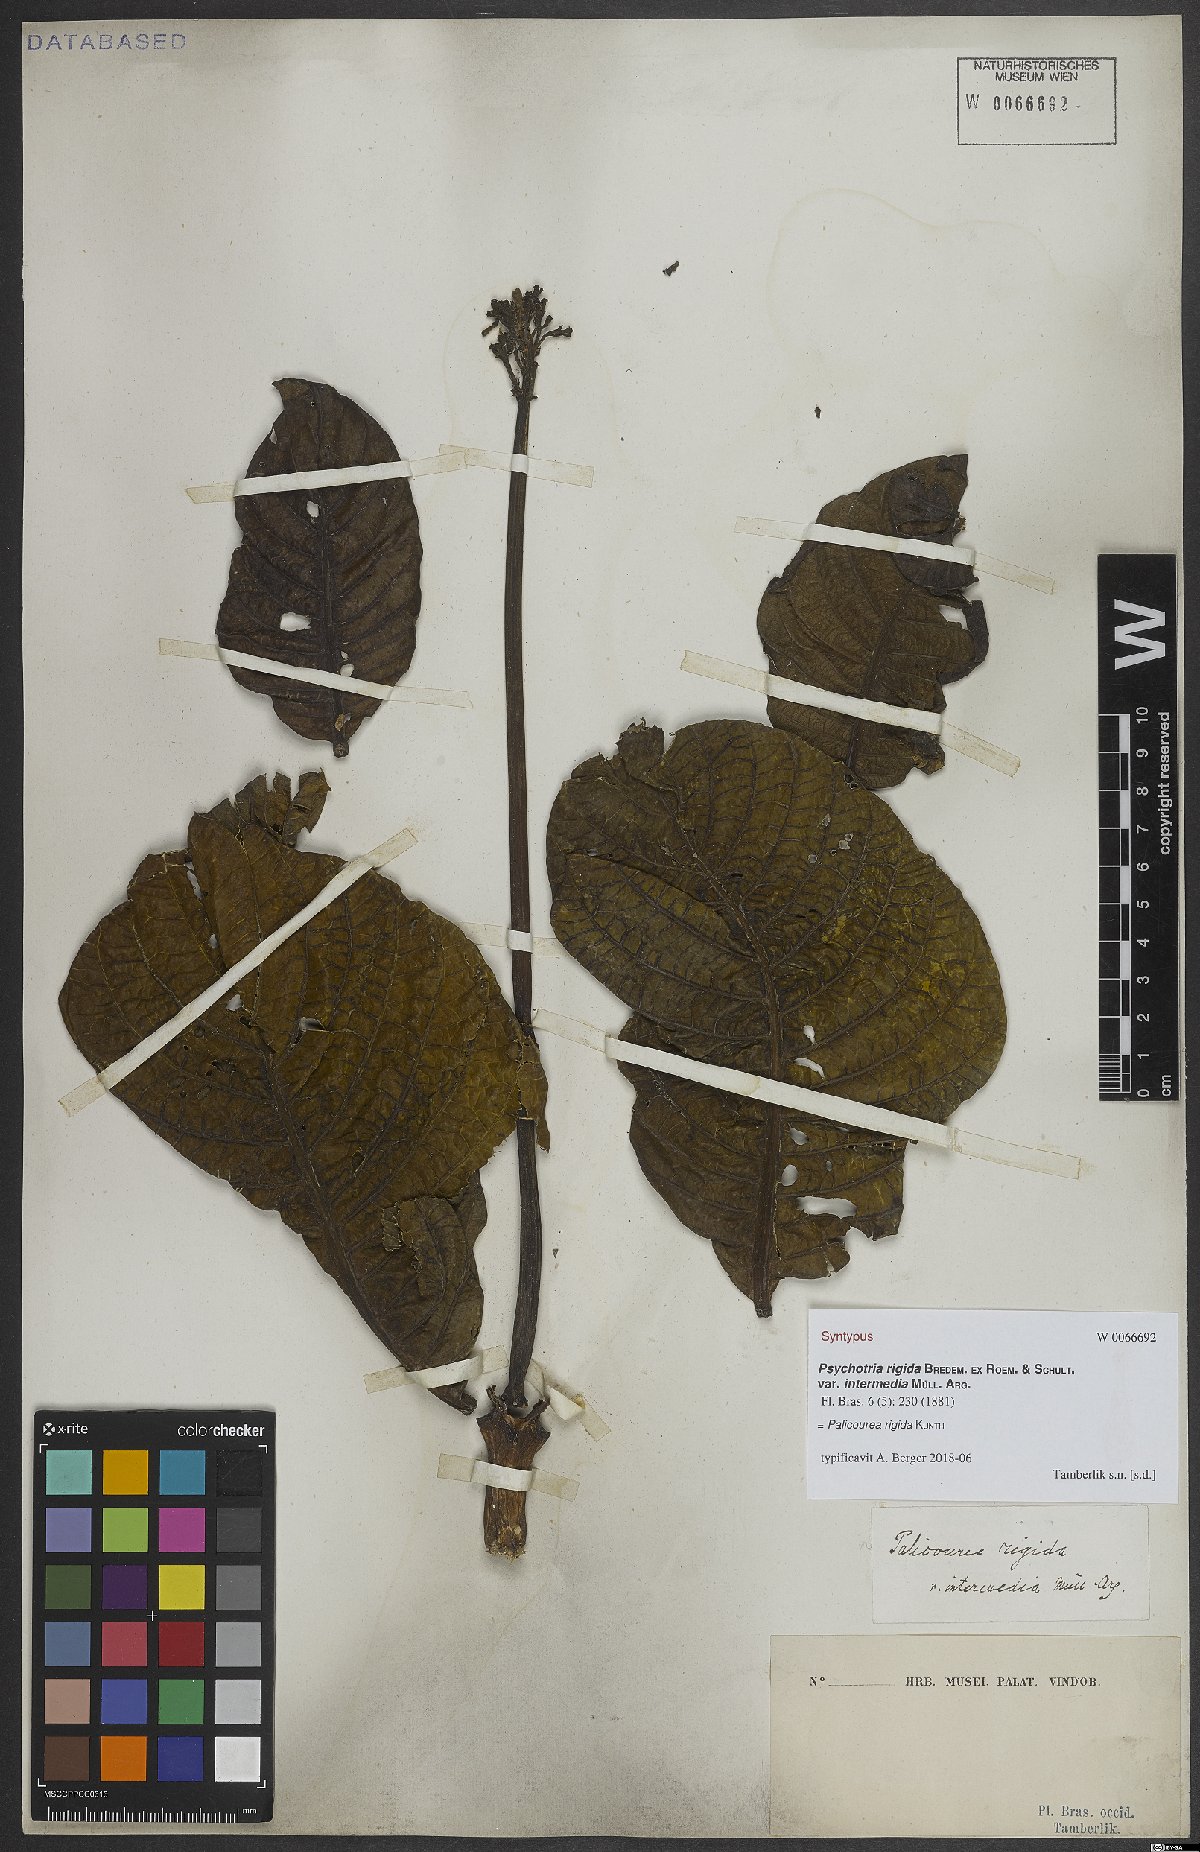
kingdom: Plantae
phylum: Tracheophyta
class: Magnoliopsida
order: Gentianales
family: Rubiaceae
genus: Palicourea
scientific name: Palicourea rigida
